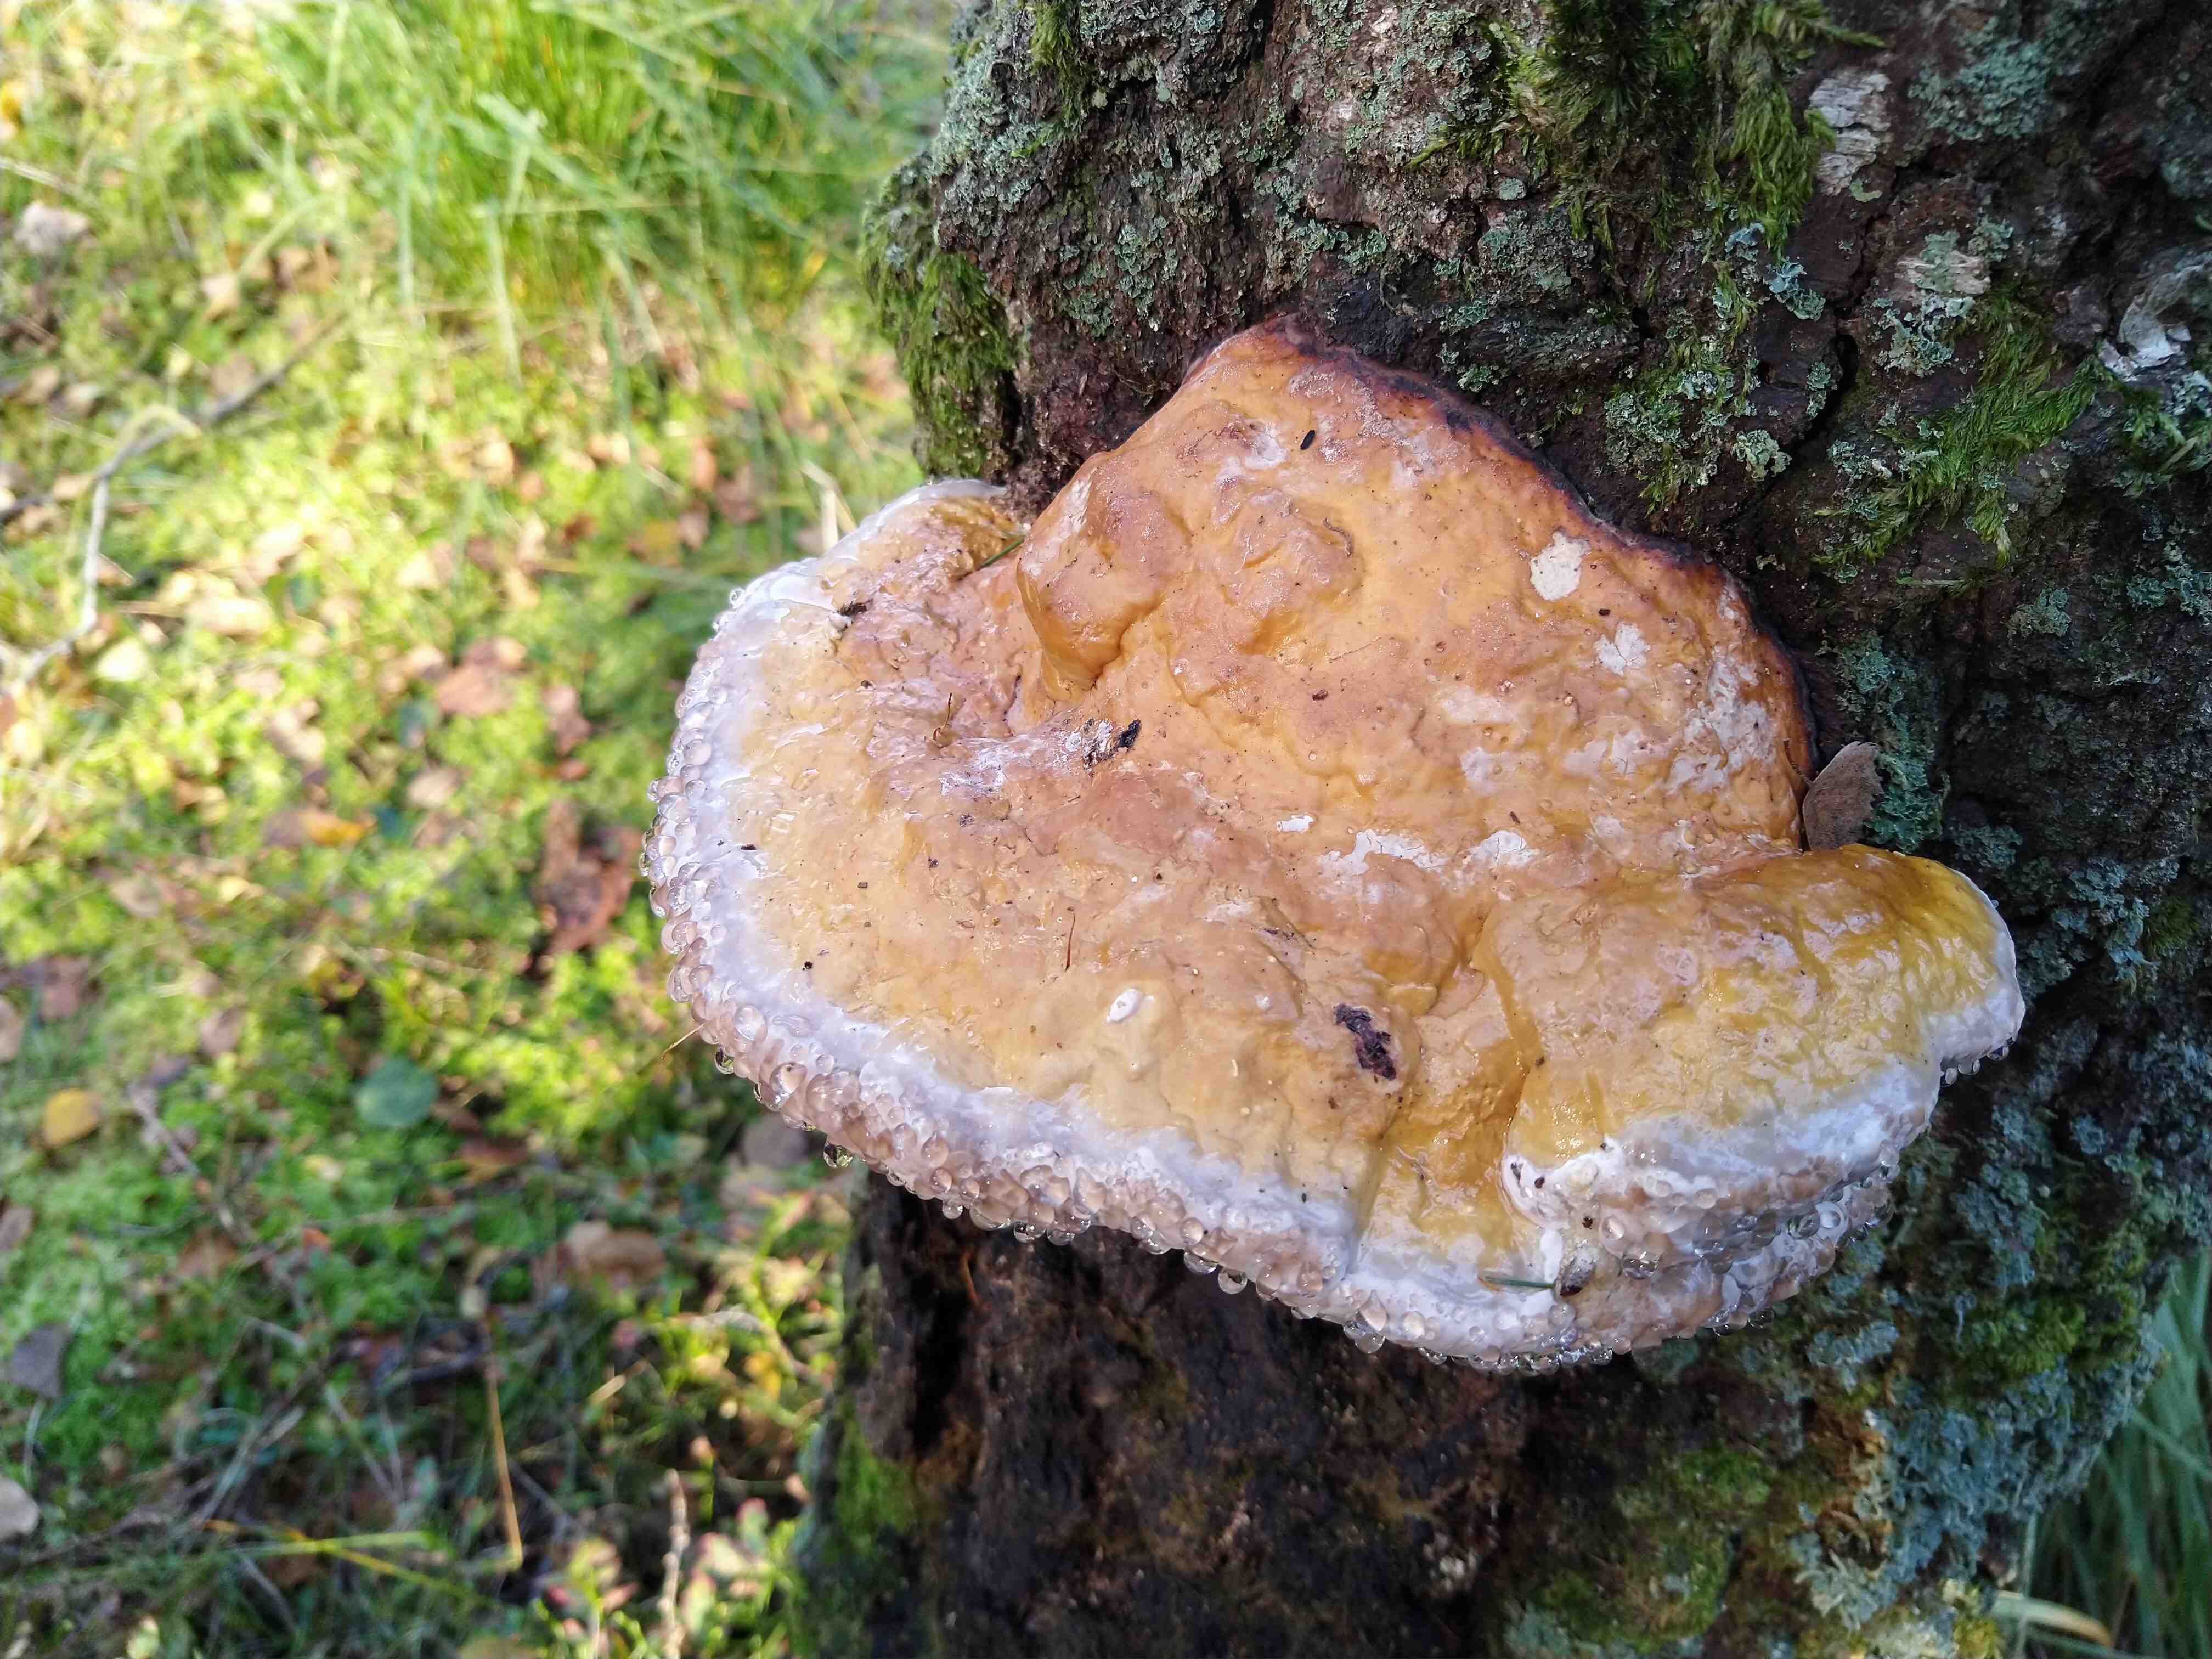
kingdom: Fungi
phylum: Basidiomycota
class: Agaricomycetes
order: Polyporales
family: Fomitopsidaceae
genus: Fomitopsis
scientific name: Fomitopsis pinicola
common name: randbæltet hovporesvamp
